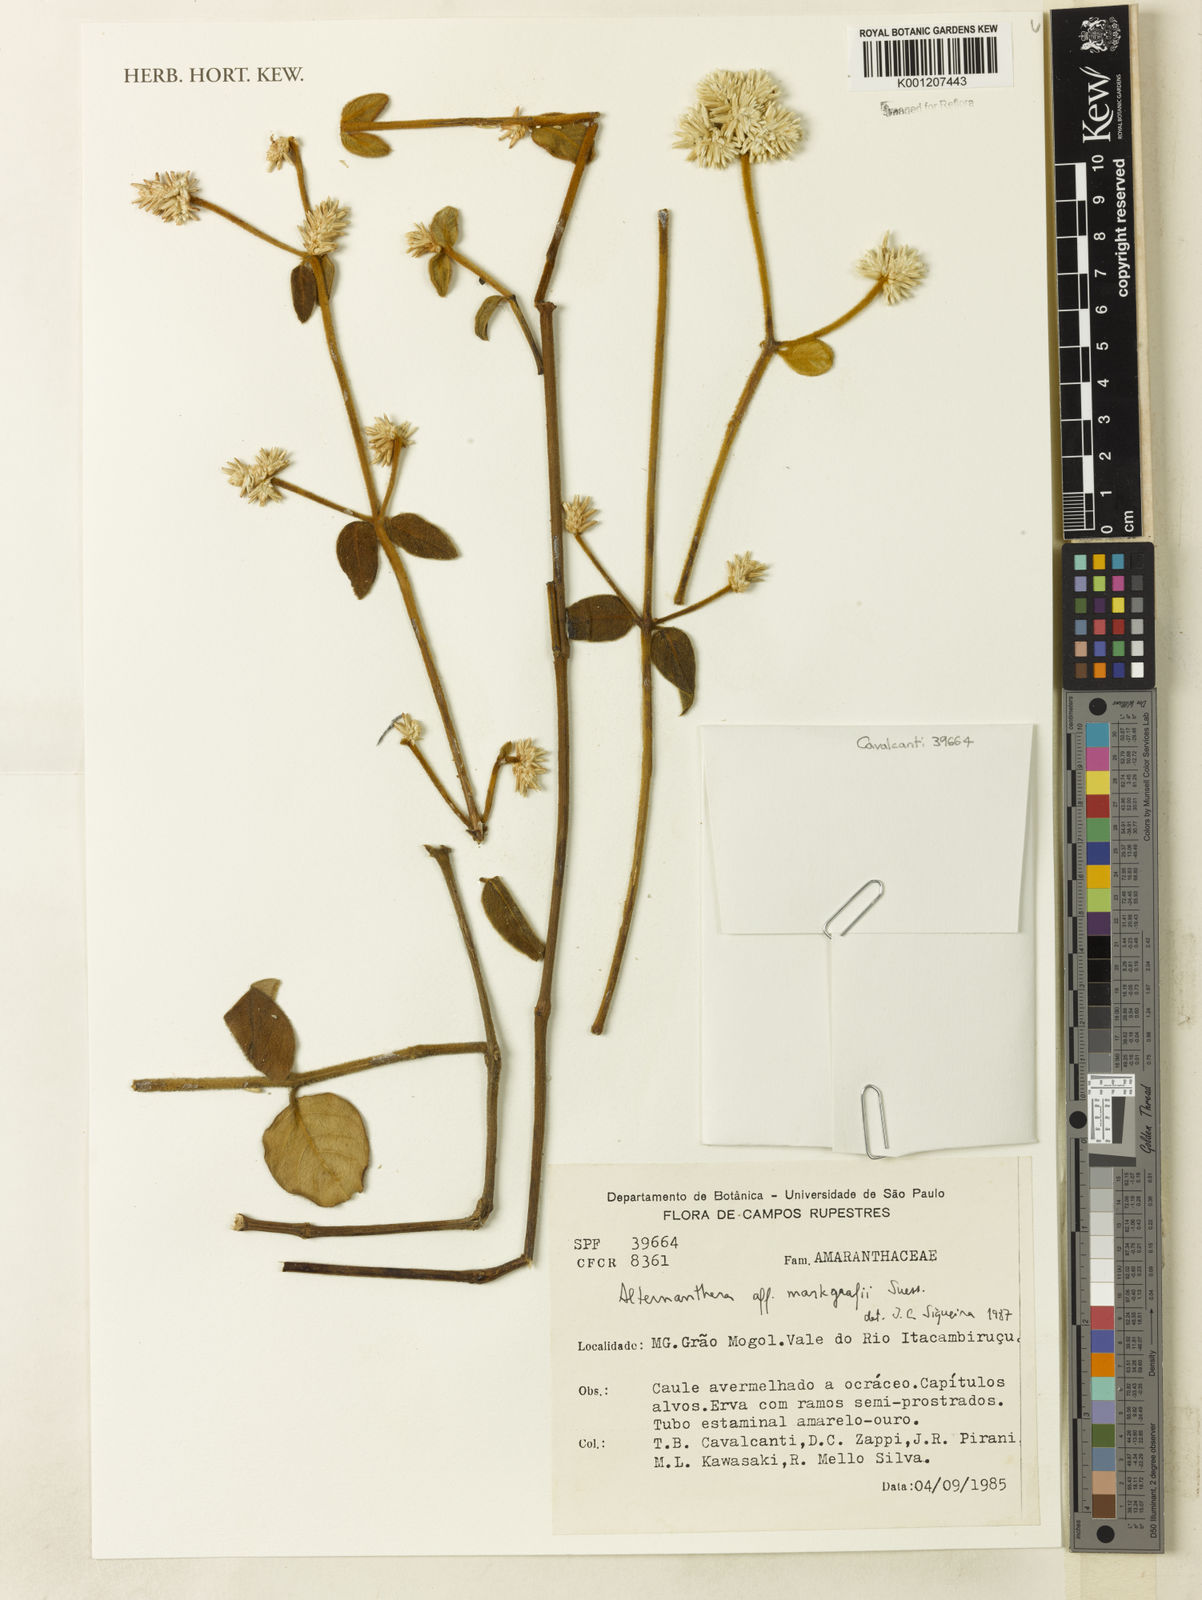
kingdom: Plantae
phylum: Tracheophyta
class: Magnoliopsida
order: Caryophyllales
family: Amaranthaceae
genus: Alternanthera
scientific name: Alternanthera markgrafii
